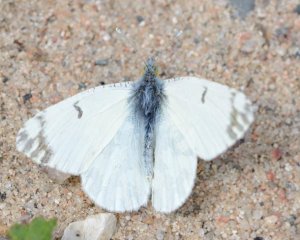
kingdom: Animalia
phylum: Arthropoda
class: Insecta
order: Lepidoptera
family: Pieridae
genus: Euchloe
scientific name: Euchloe ausonides
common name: Large Marble
